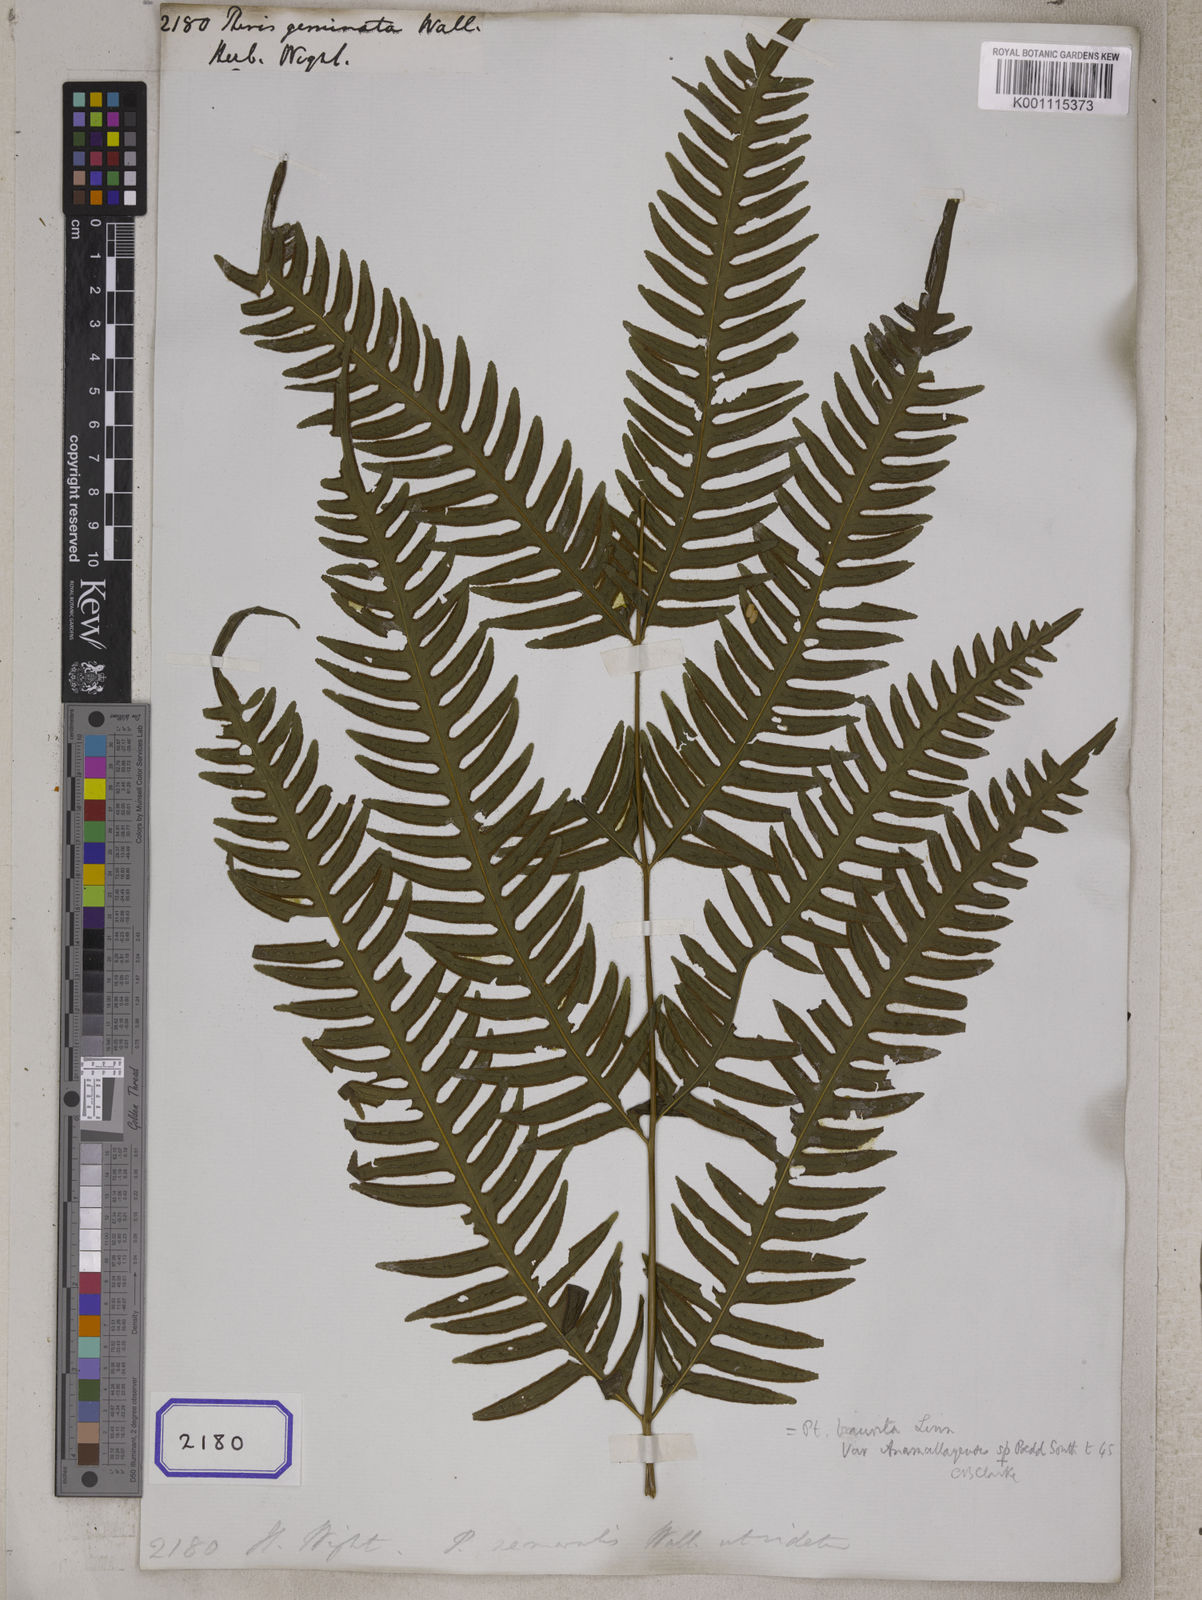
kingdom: Plantae
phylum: Tracheophyta
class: Polypodiopsida
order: Polypodiales
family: Pteridaceae
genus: Pteris
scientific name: Pteris geminata
